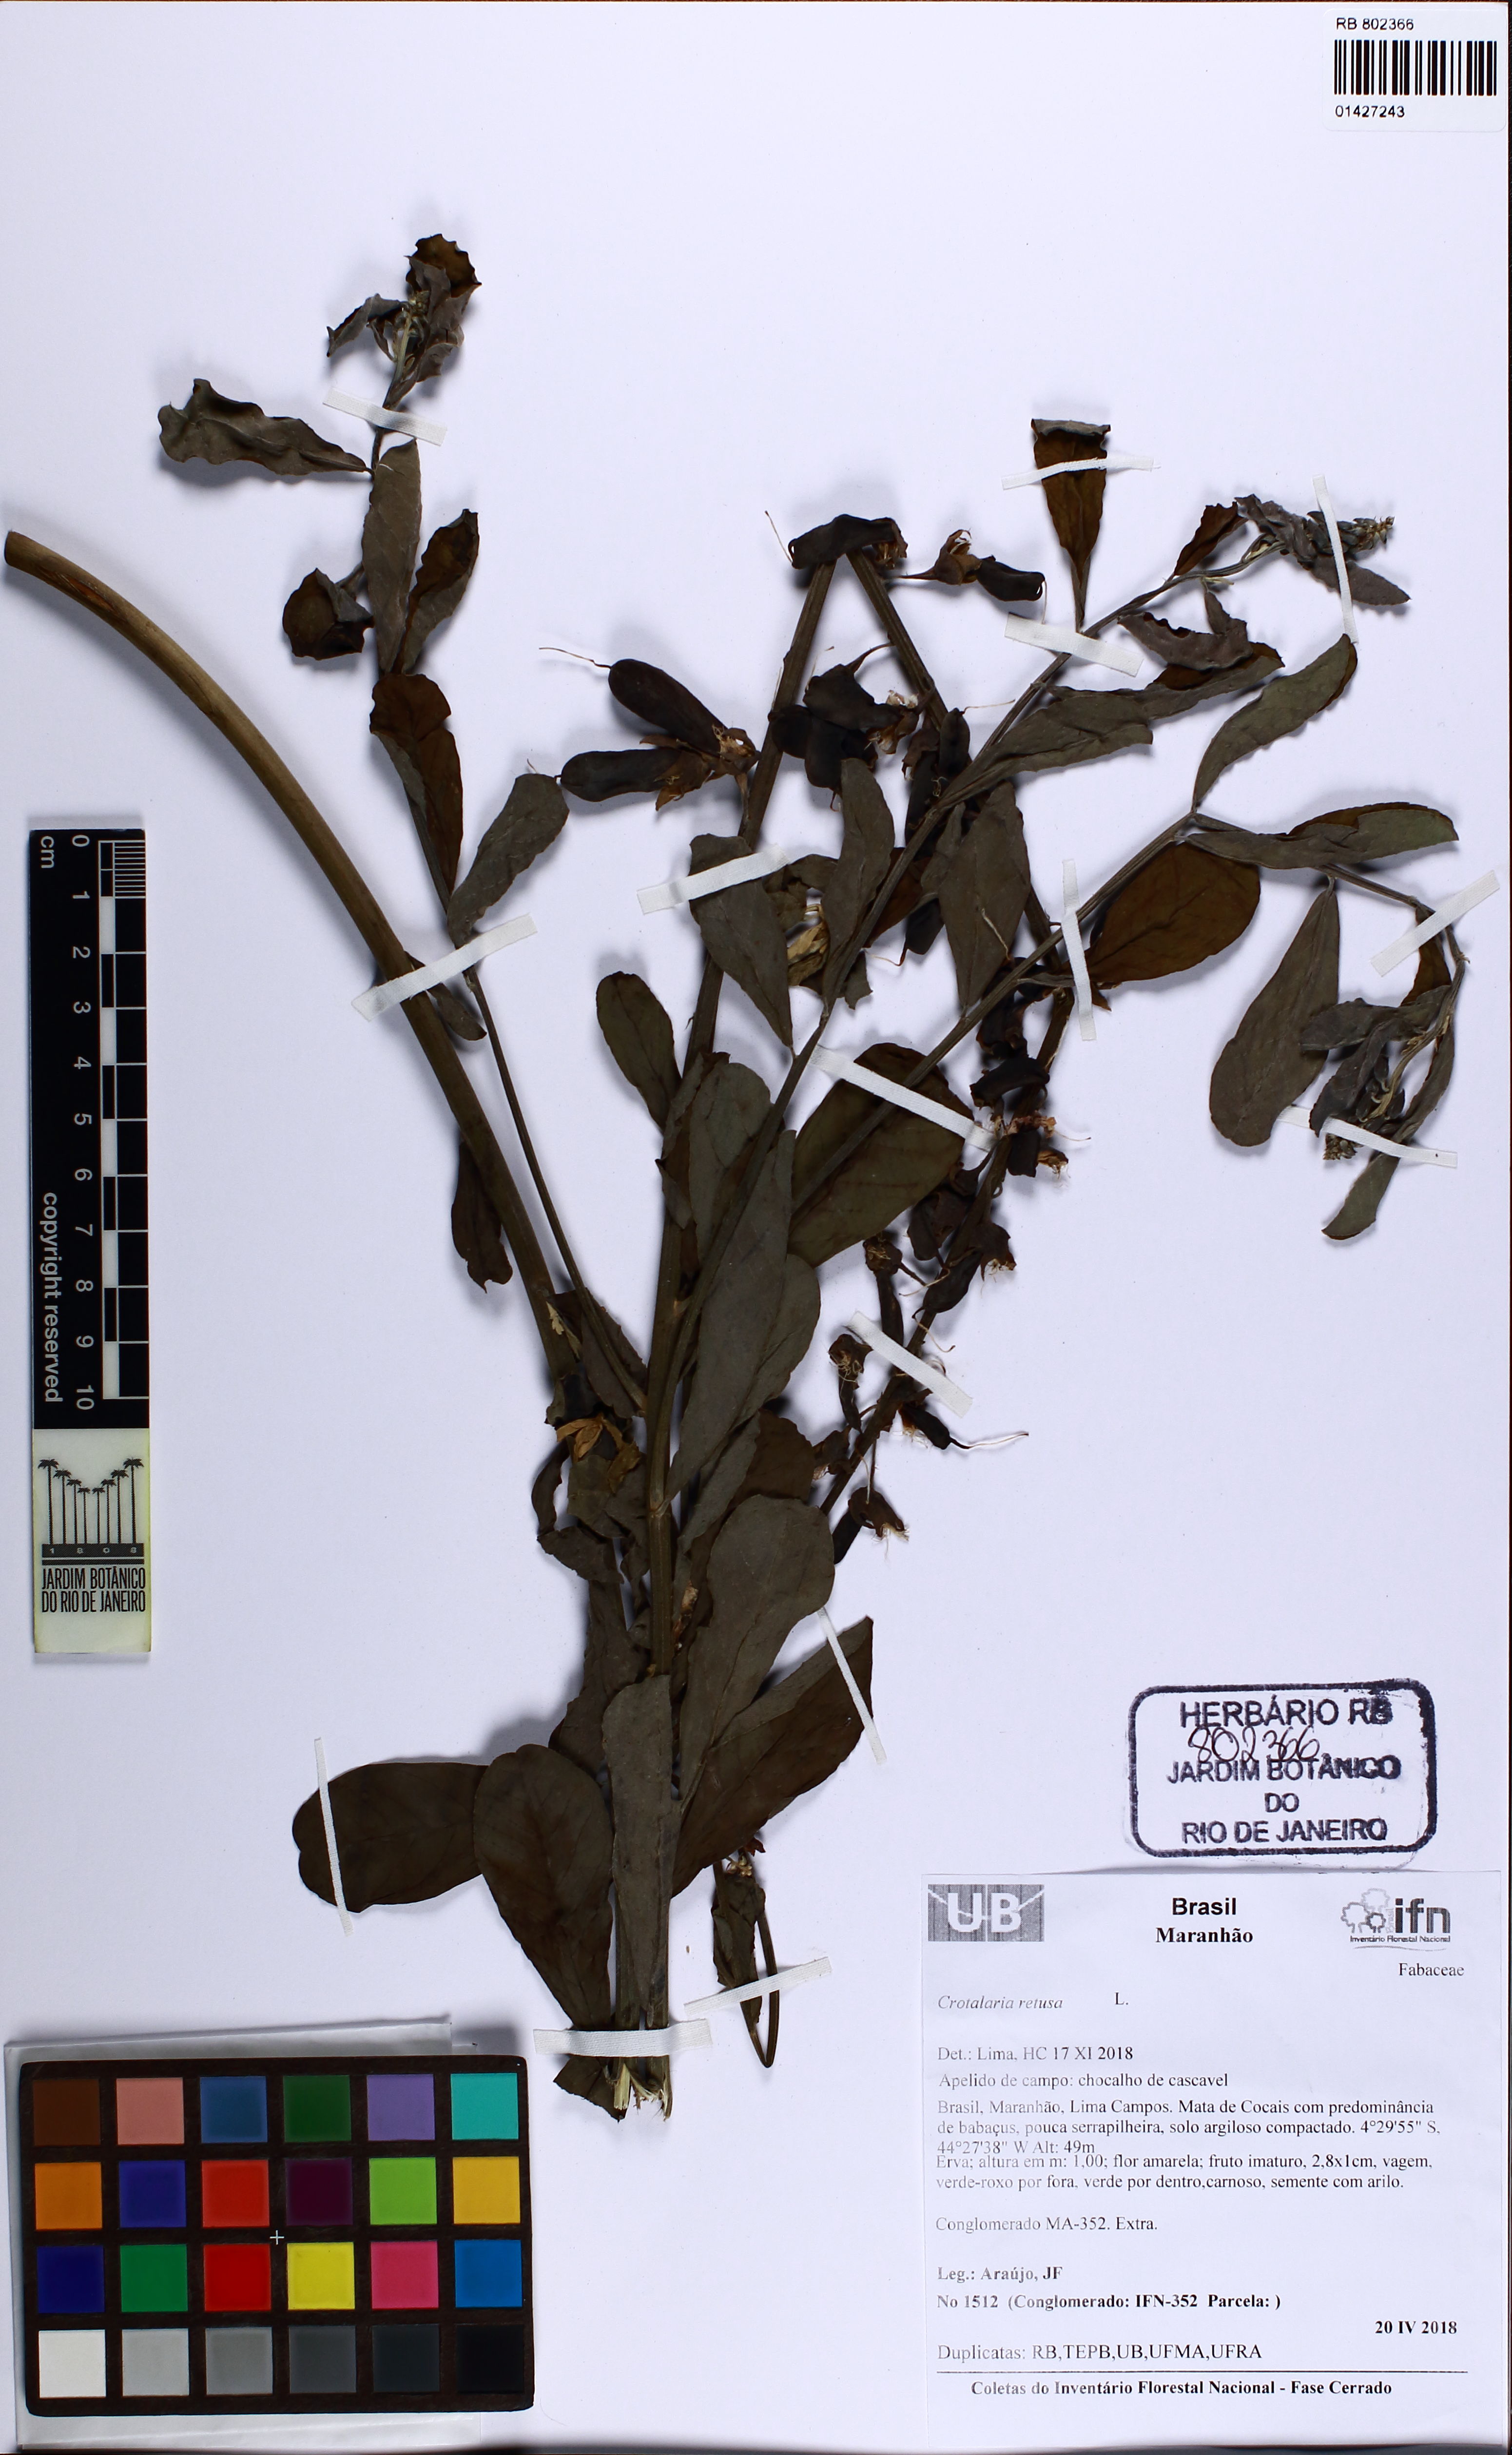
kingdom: Plantae
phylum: Tracheophyta
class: Magnoliopsida
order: Fabales
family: Fabaceae
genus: Crotalaria
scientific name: Crotalaria retusa
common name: Rattleweed
